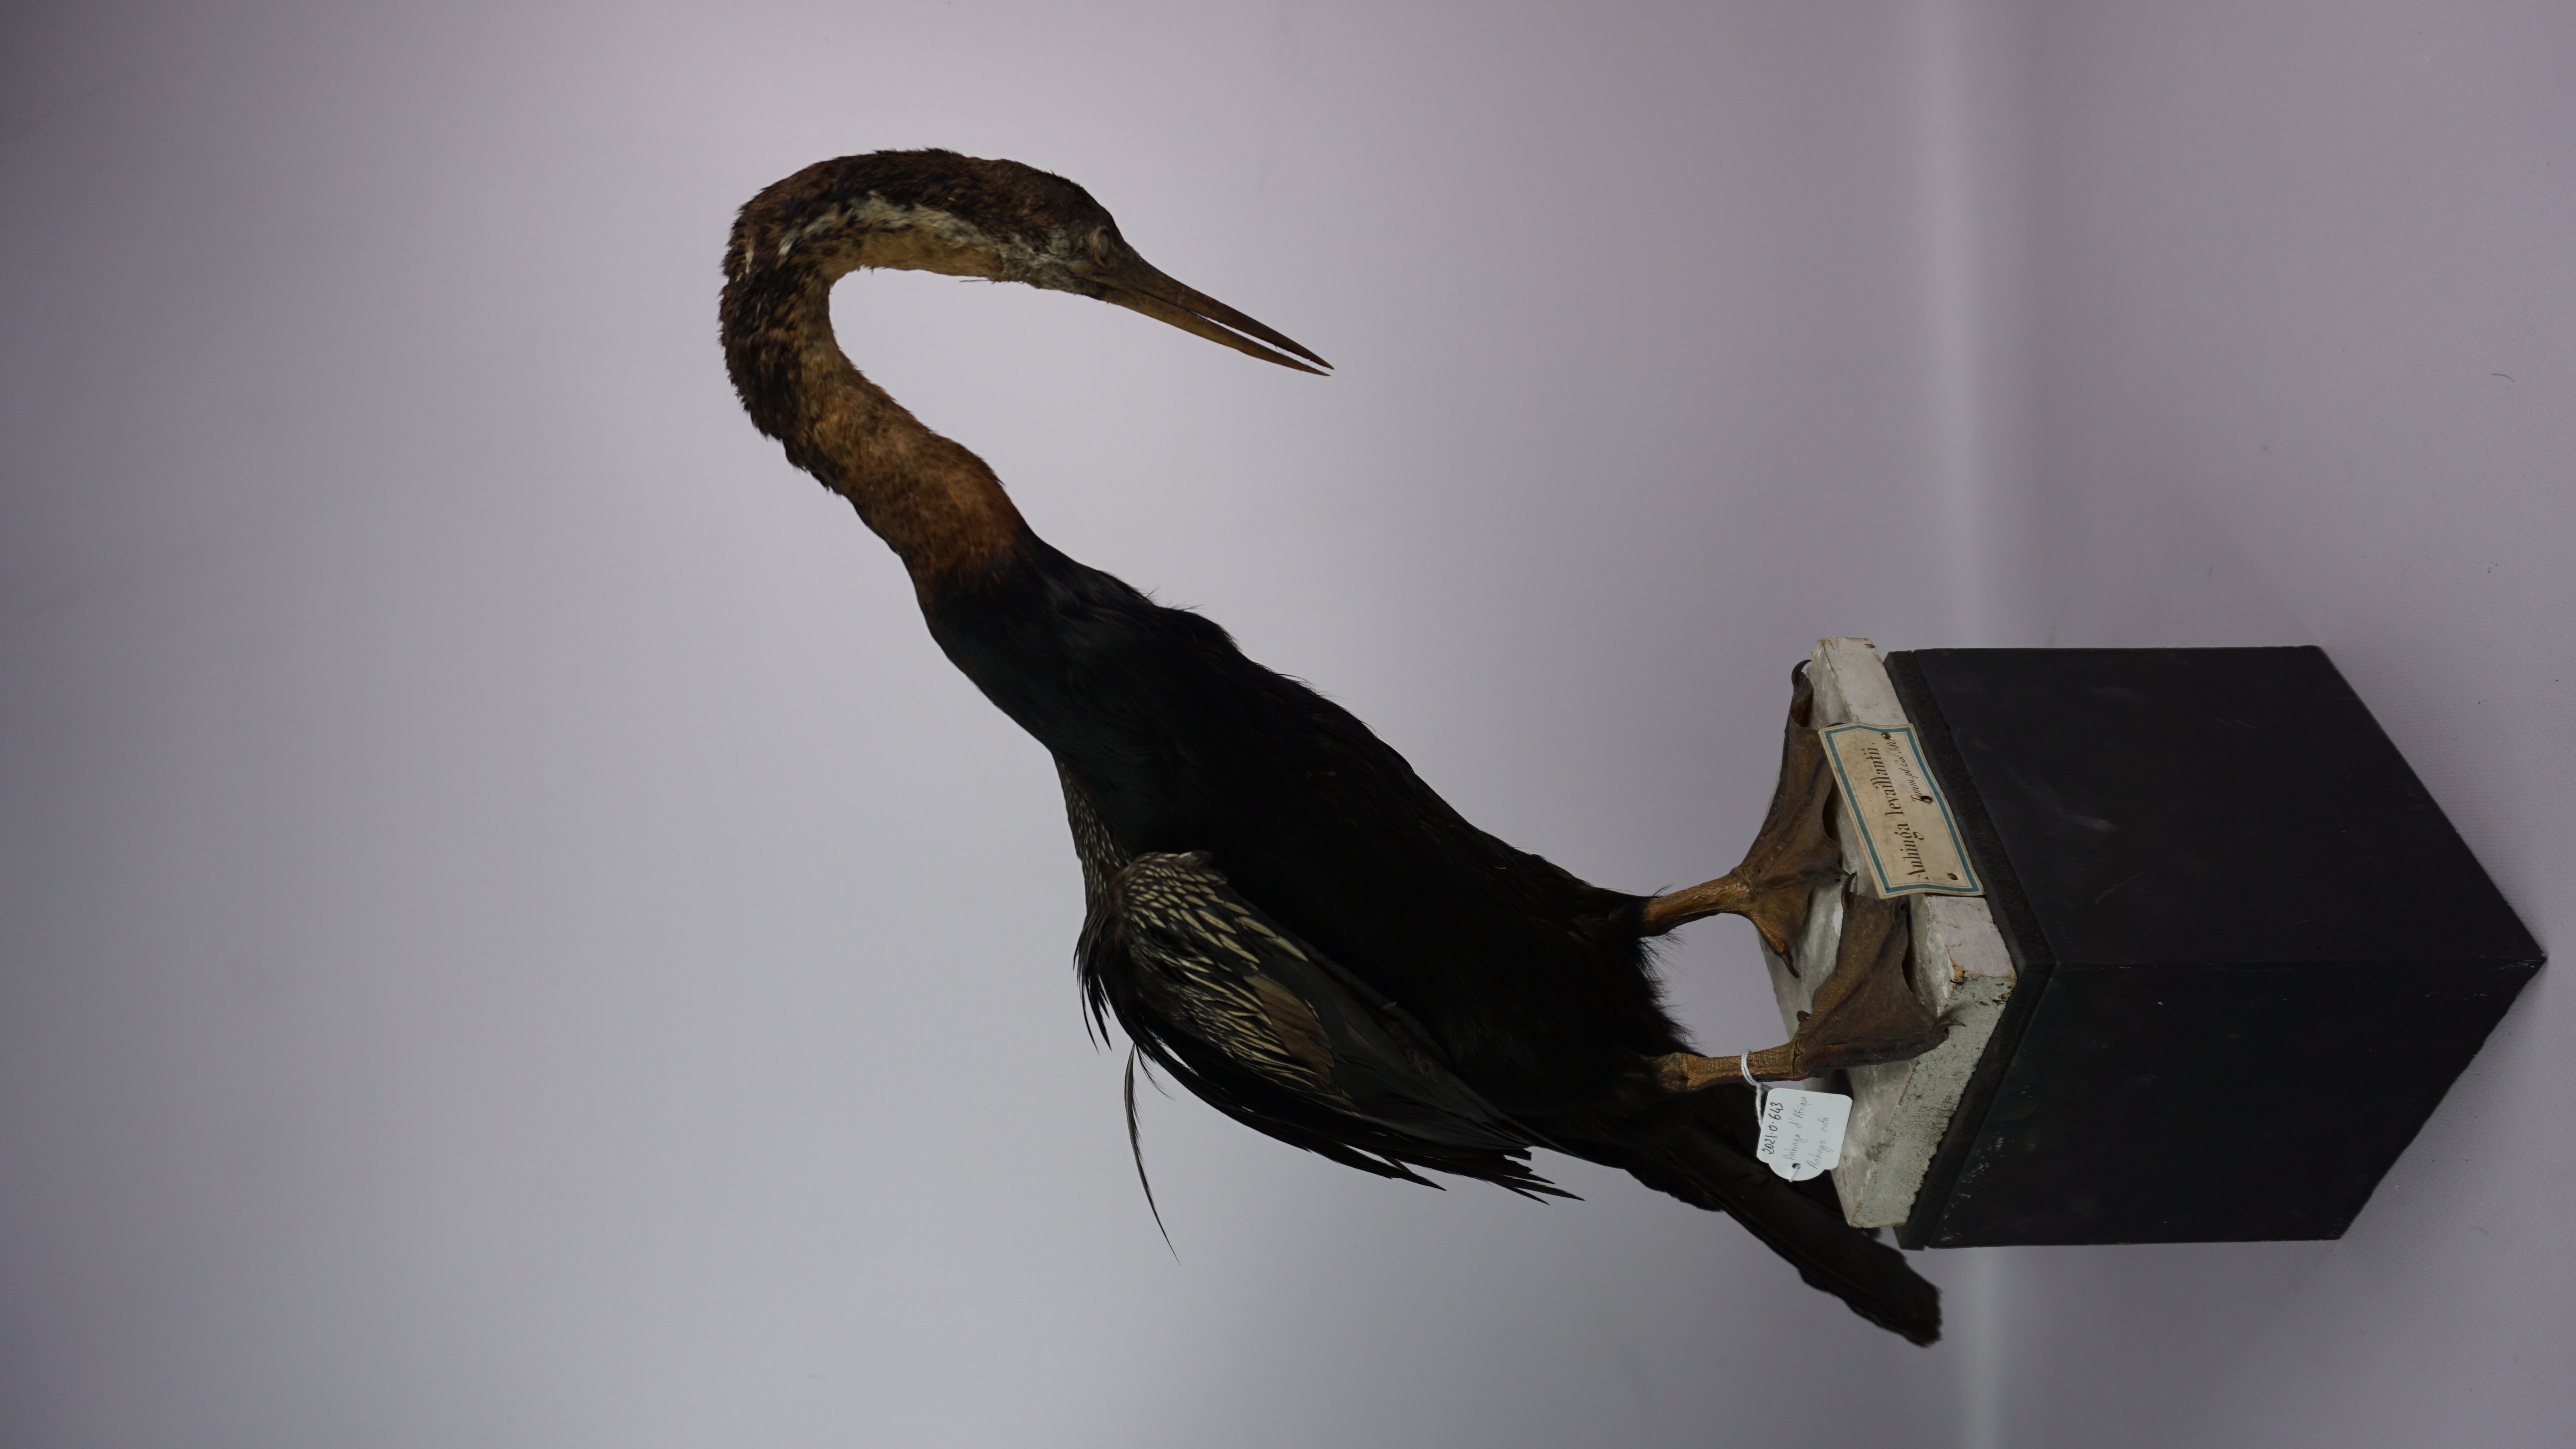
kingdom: Animalia
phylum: Chordata
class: Aves
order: Suliformes
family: Anhingidae
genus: Anhinga
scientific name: Anhinga rufa
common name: African darter
